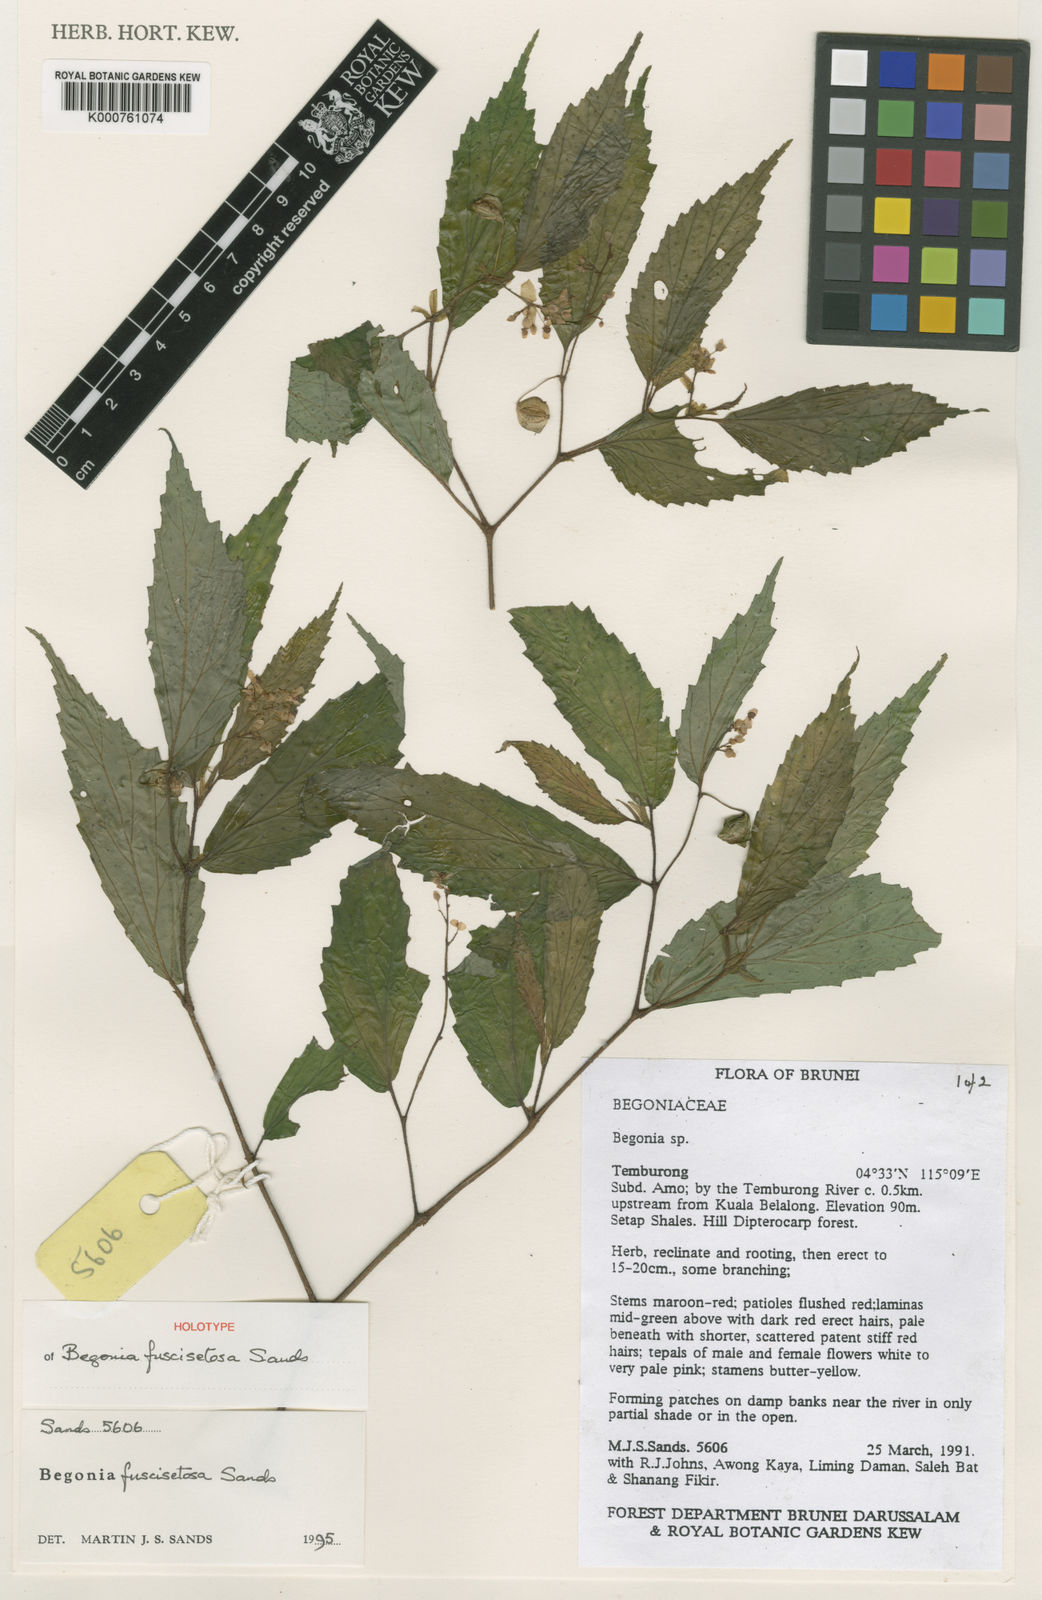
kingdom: Plantae
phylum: Tracheophyta
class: Magnoliopsida
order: Cucurbitales
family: Begoniaceae
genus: Begonia
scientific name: Begonia fuscisetosa
